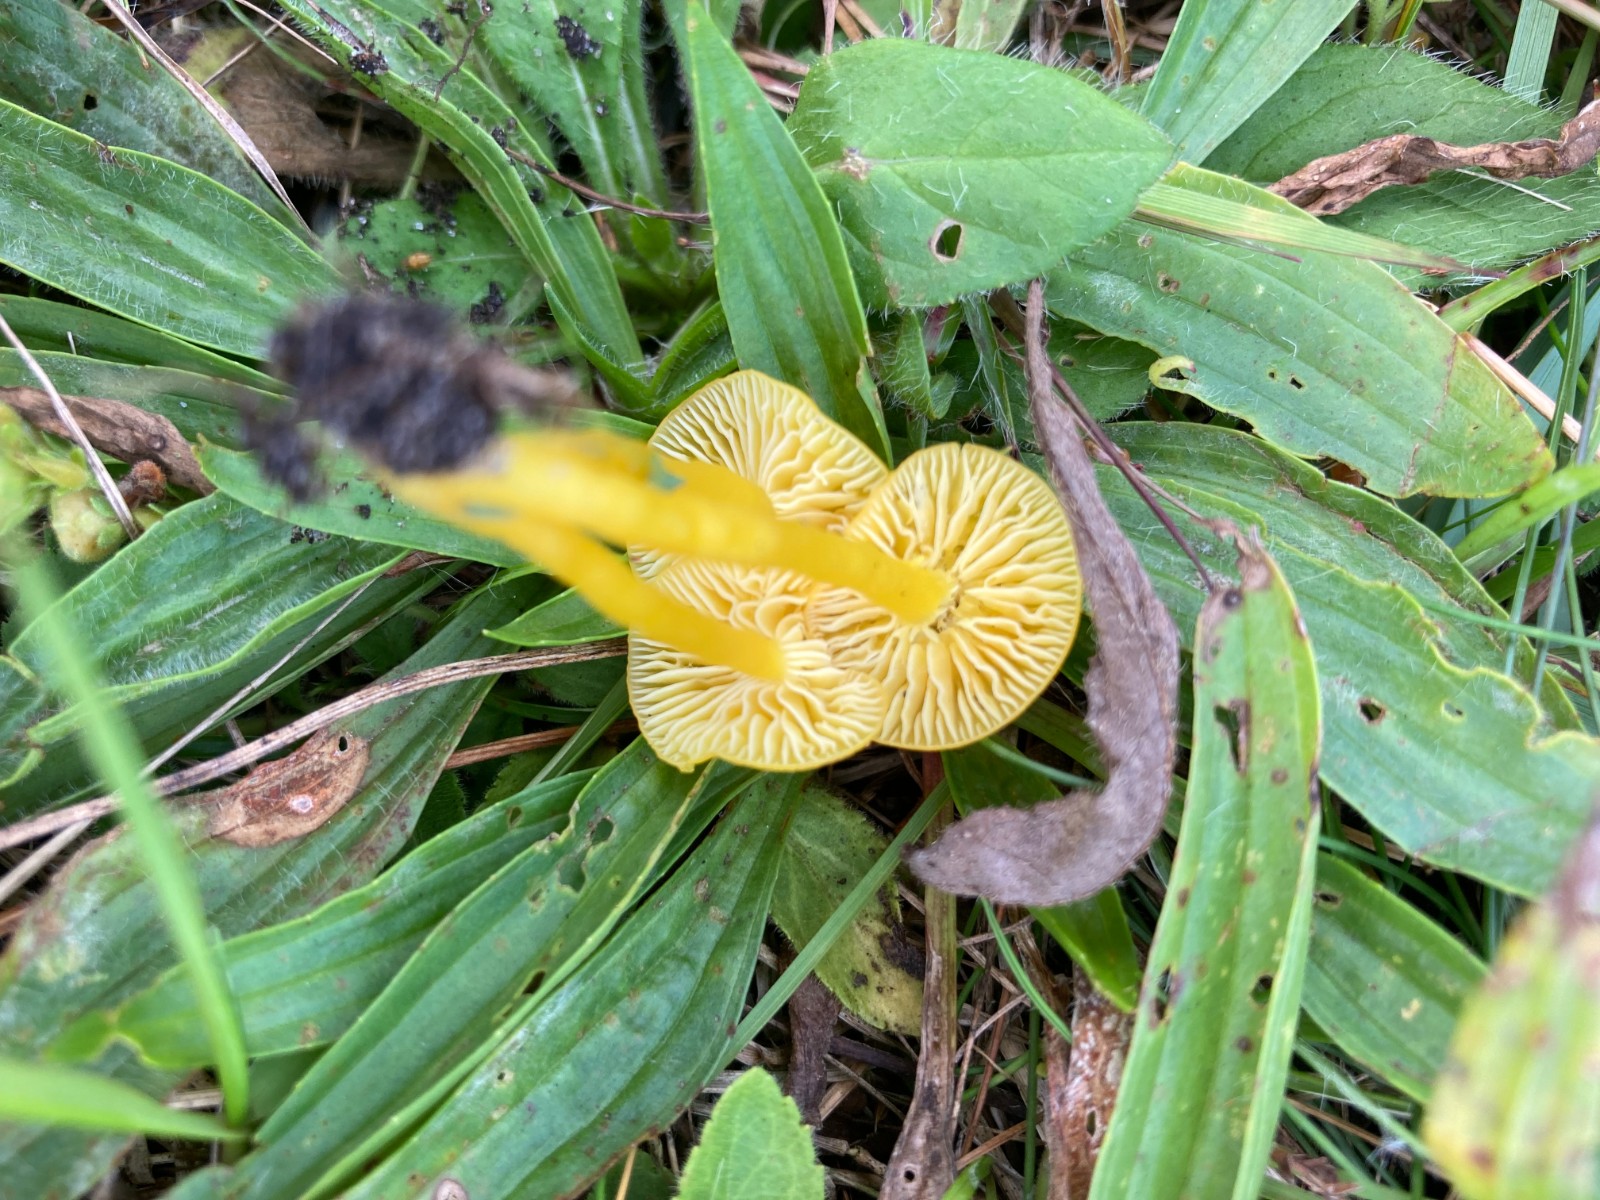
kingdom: Fungi
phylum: Basidiomycota
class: Agaricomycetes
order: Agaricales
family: Hygrophoraceae
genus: Hygrocybe
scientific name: Hygrocybe ceracea
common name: voksgul vokshat
